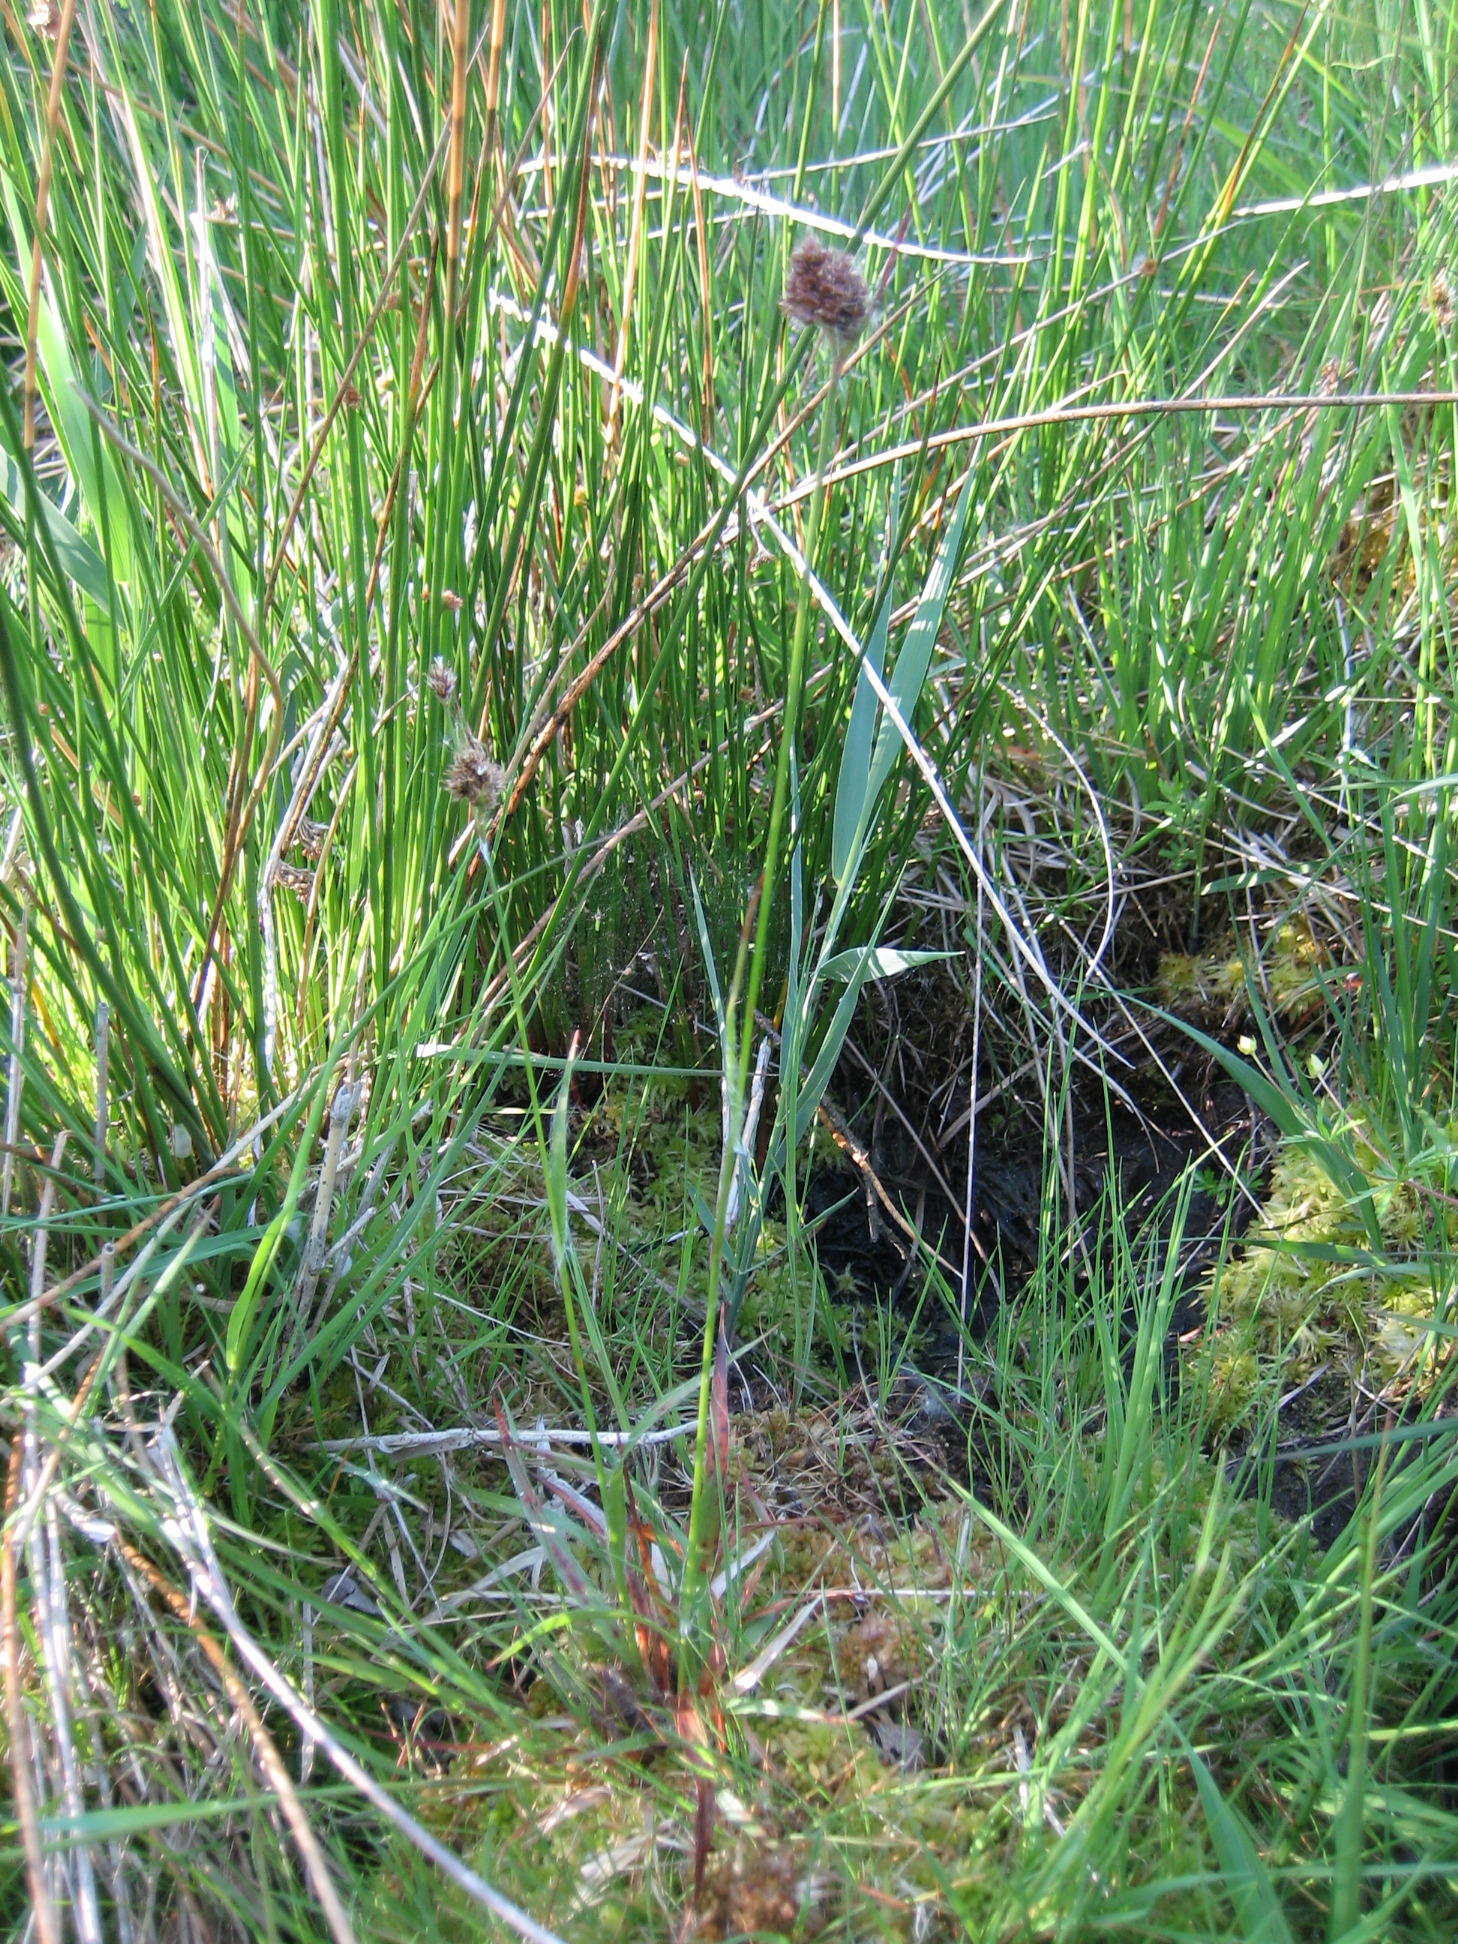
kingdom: Plantae
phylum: Tracheophyta
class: Liliopsida
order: Poales
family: Juncaceae
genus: Luzula
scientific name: Luzula congesta
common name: Hoved-frytle
